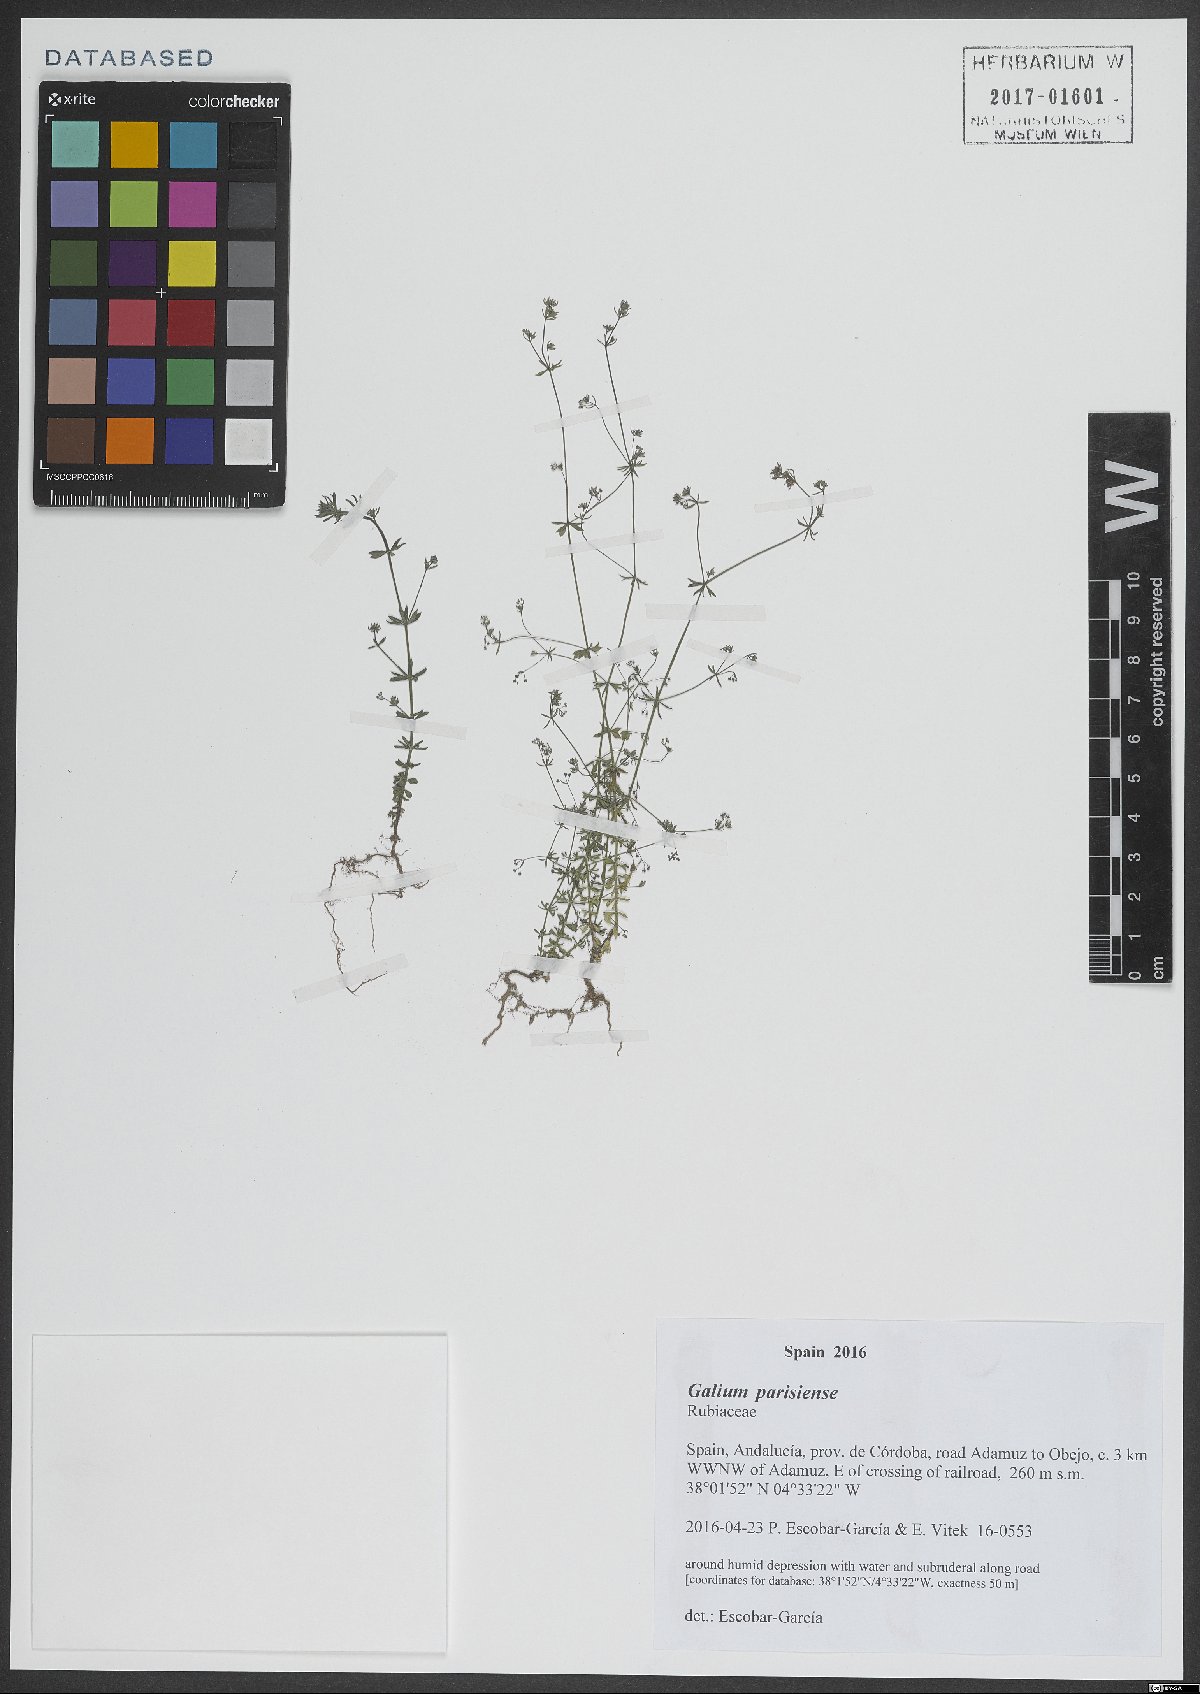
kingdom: Plantae
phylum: Tracheophyta
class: Magnoliopsida
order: Gentianales
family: Rubiaceae
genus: Galium
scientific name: Galium parisiense
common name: Wall bedstraw
